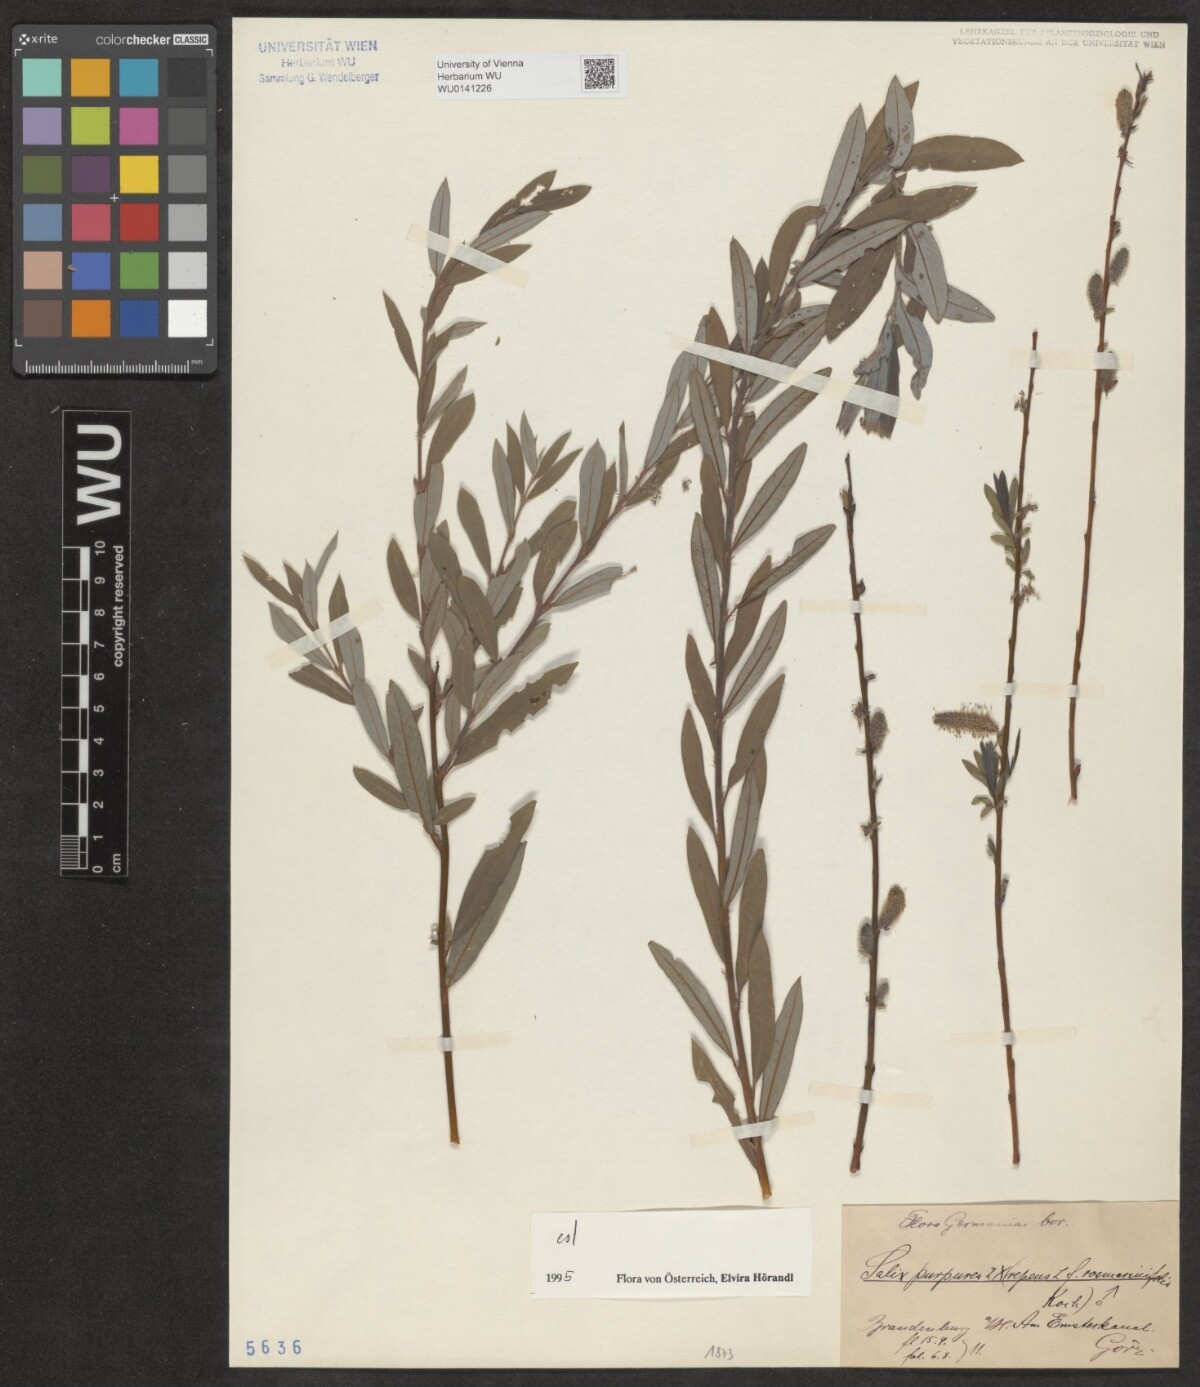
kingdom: Plantae
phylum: Tracheophyta
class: Magnoliopsida
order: Malpighiales
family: Salicaceae
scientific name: Salicaceae
